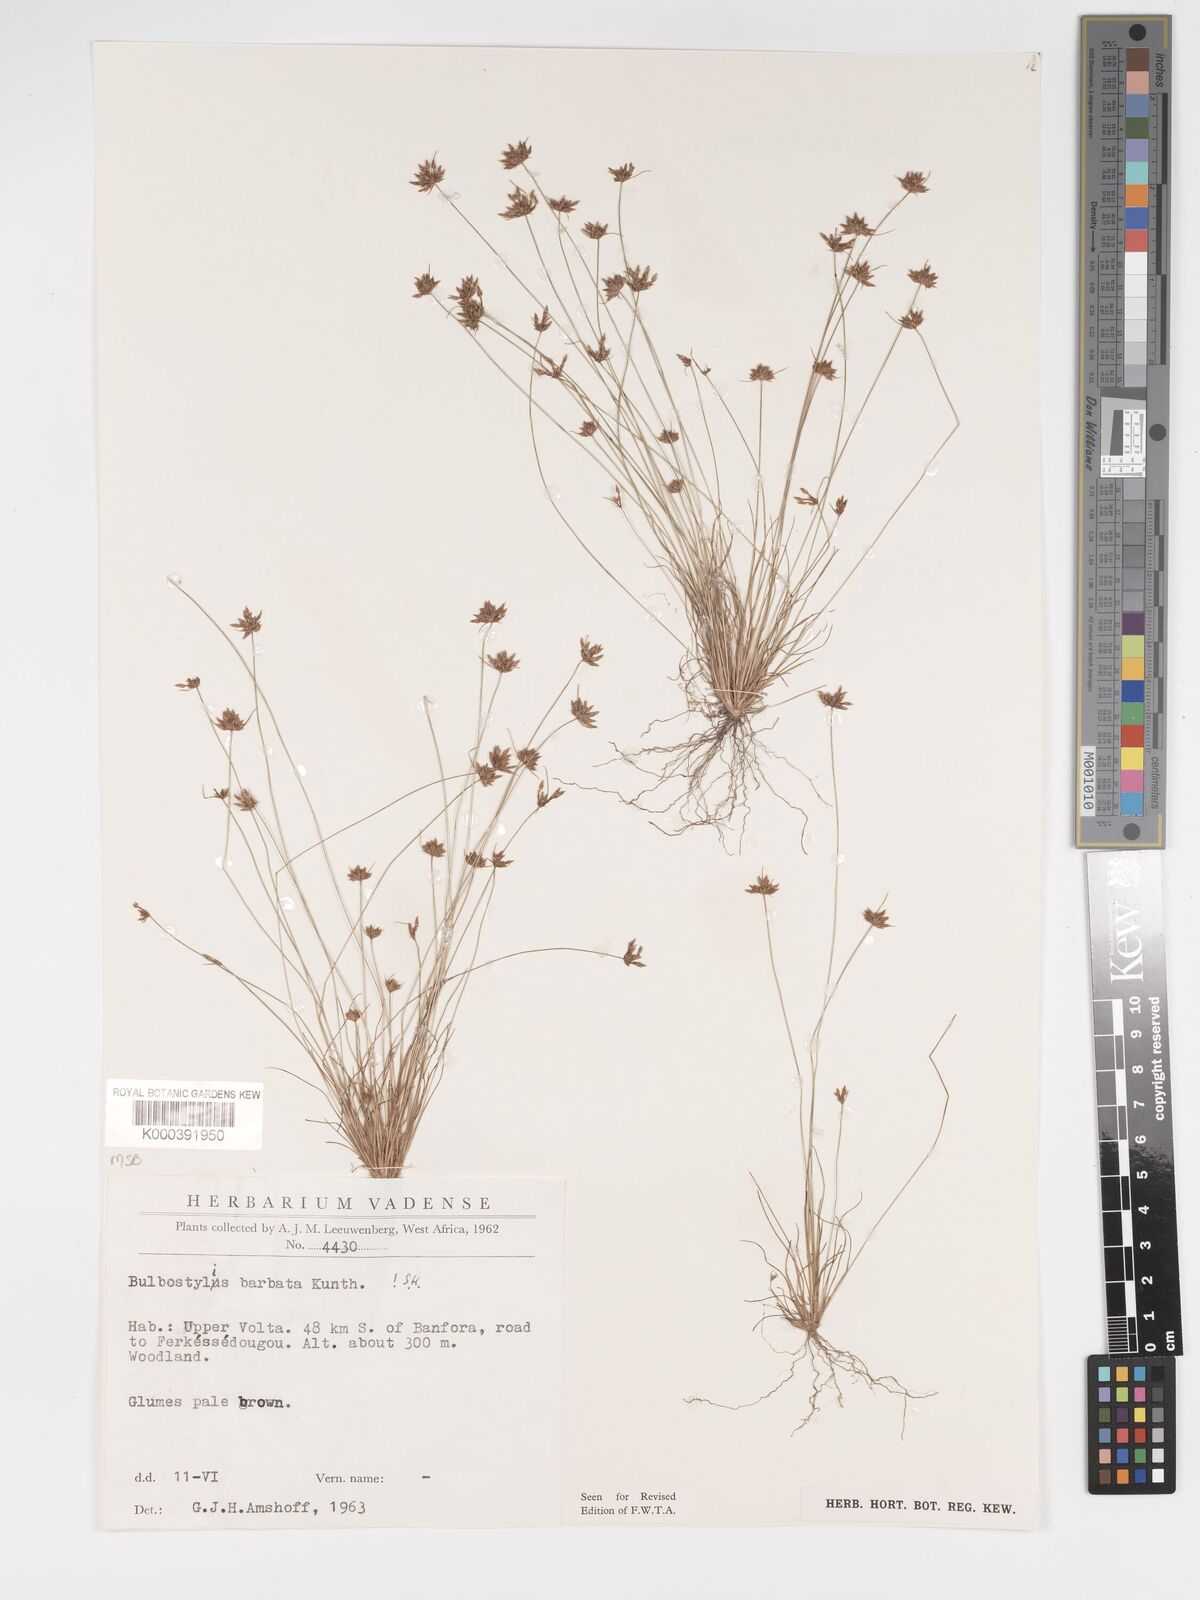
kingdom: Plantae
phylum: Tracheophyta
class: Liliopsida
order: Poales
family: Cyperaceae
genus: Bulbostylis
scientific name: Bulbostylis barbata
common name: Watergrass
